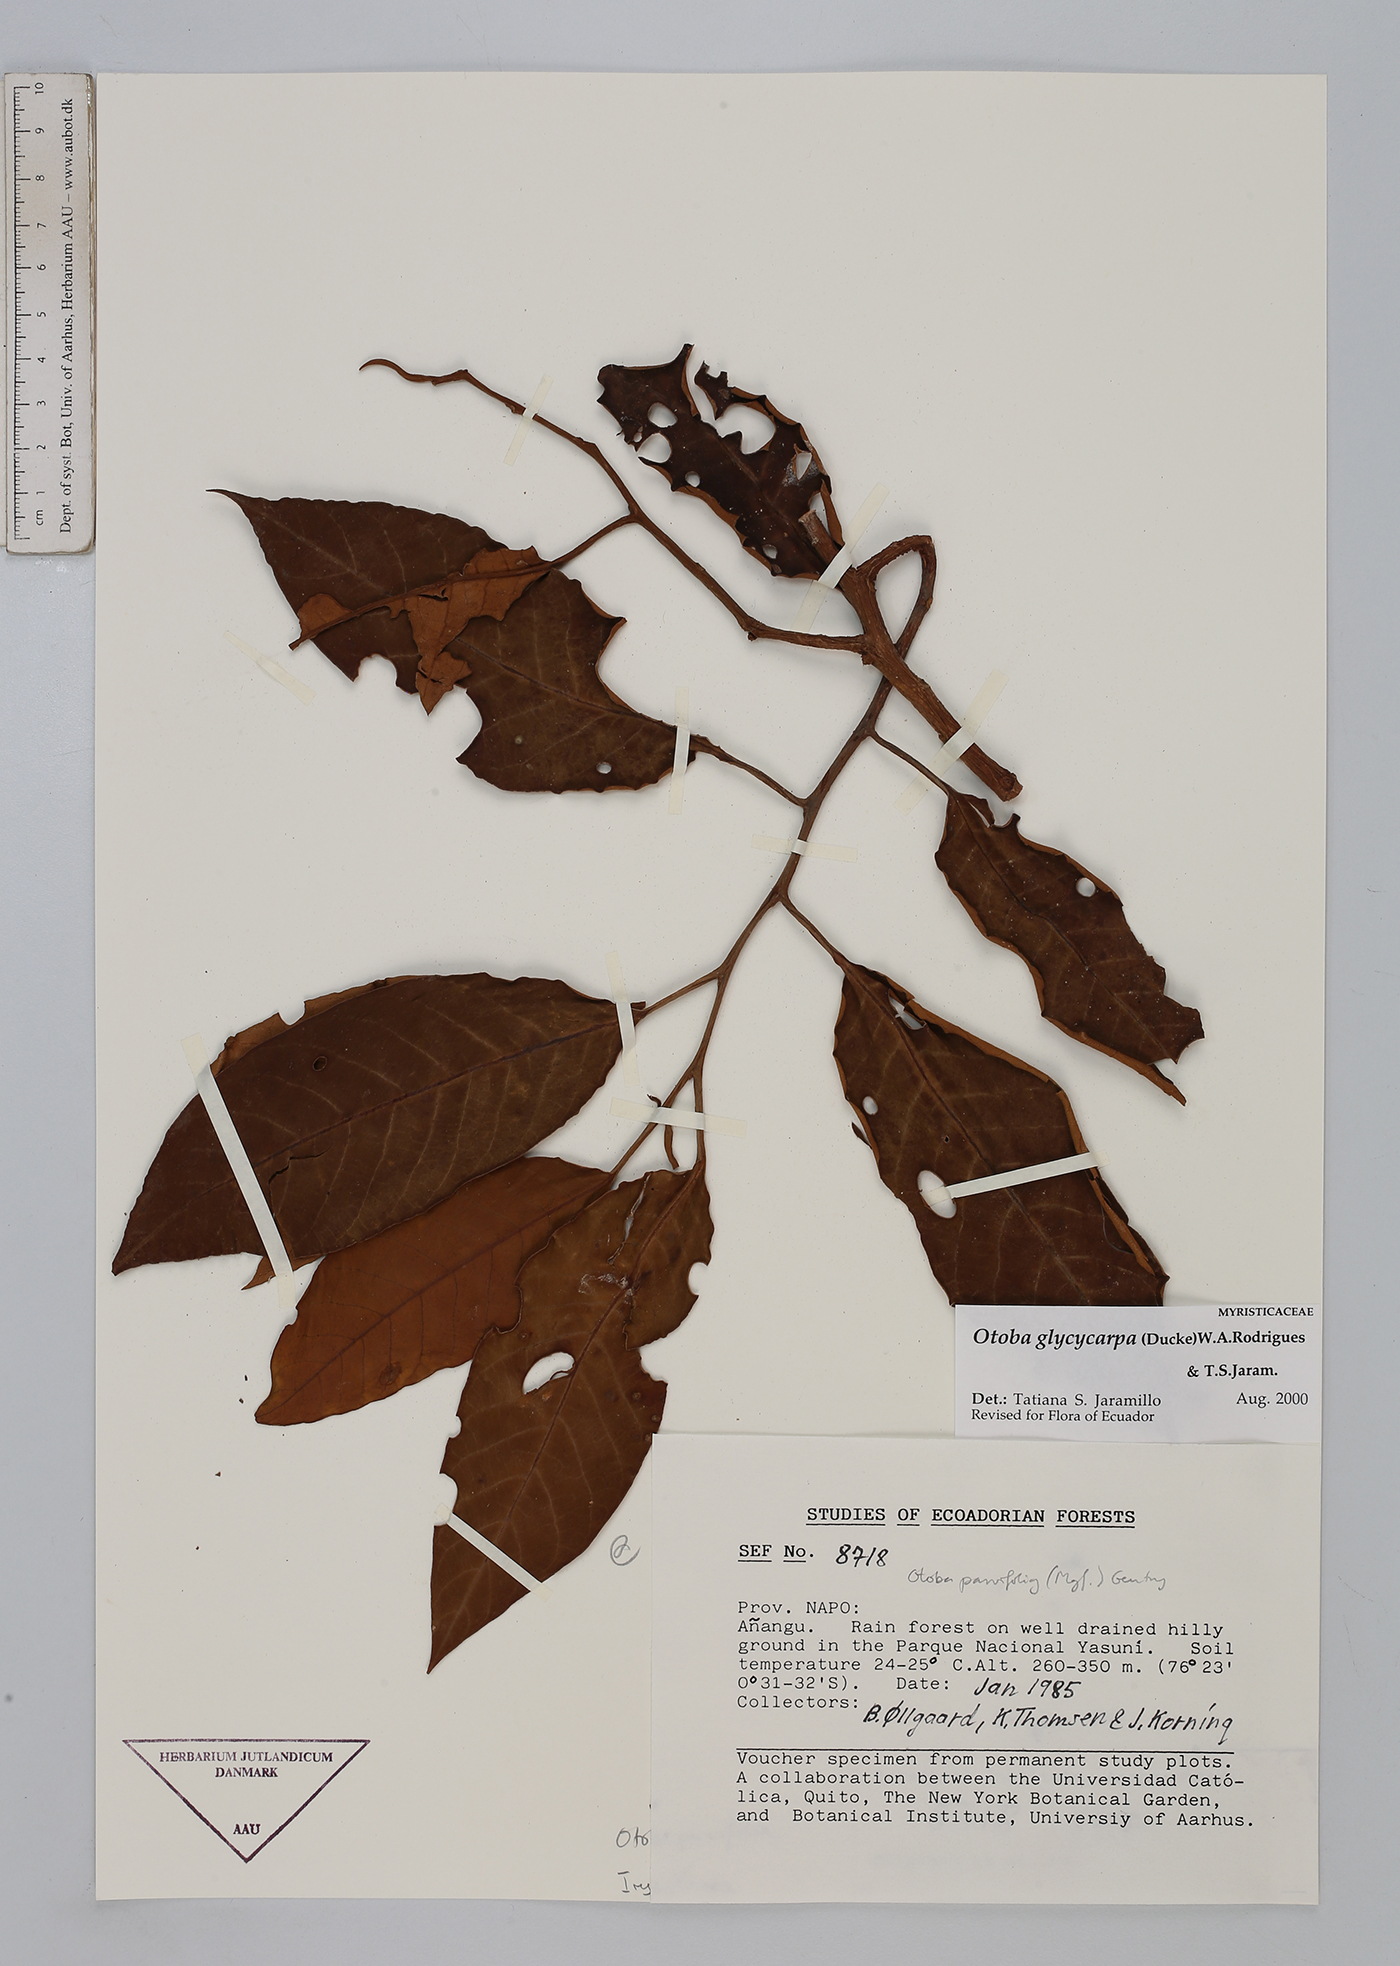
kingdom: Plantae
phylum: Tracheophyta
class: Magnoliopsida
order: Magnoliales
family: Myristicaceae
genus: Otoba
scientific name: Otoba glycycarpa
